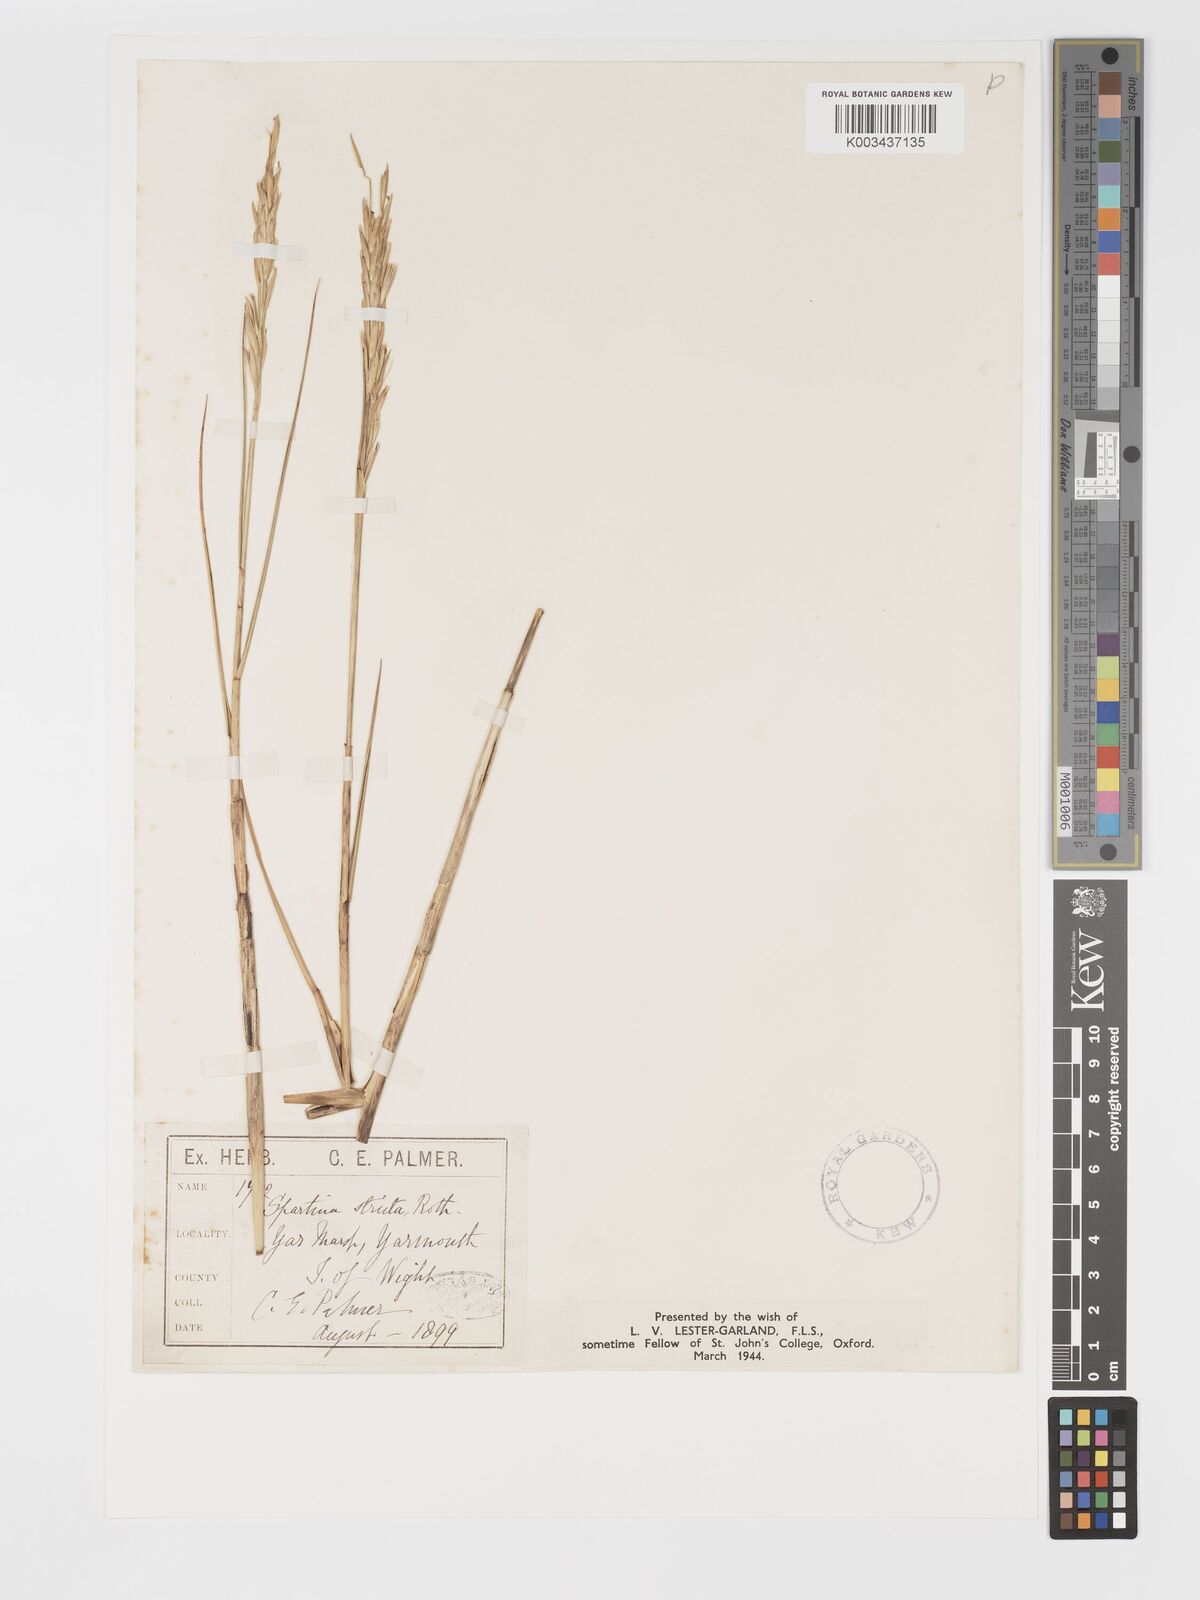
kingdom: Plantae
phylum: Tracheophyta
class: Liliopsida
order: Poales
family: Poaceae
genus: Sporobolus
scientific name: Sporobolus maritimus
